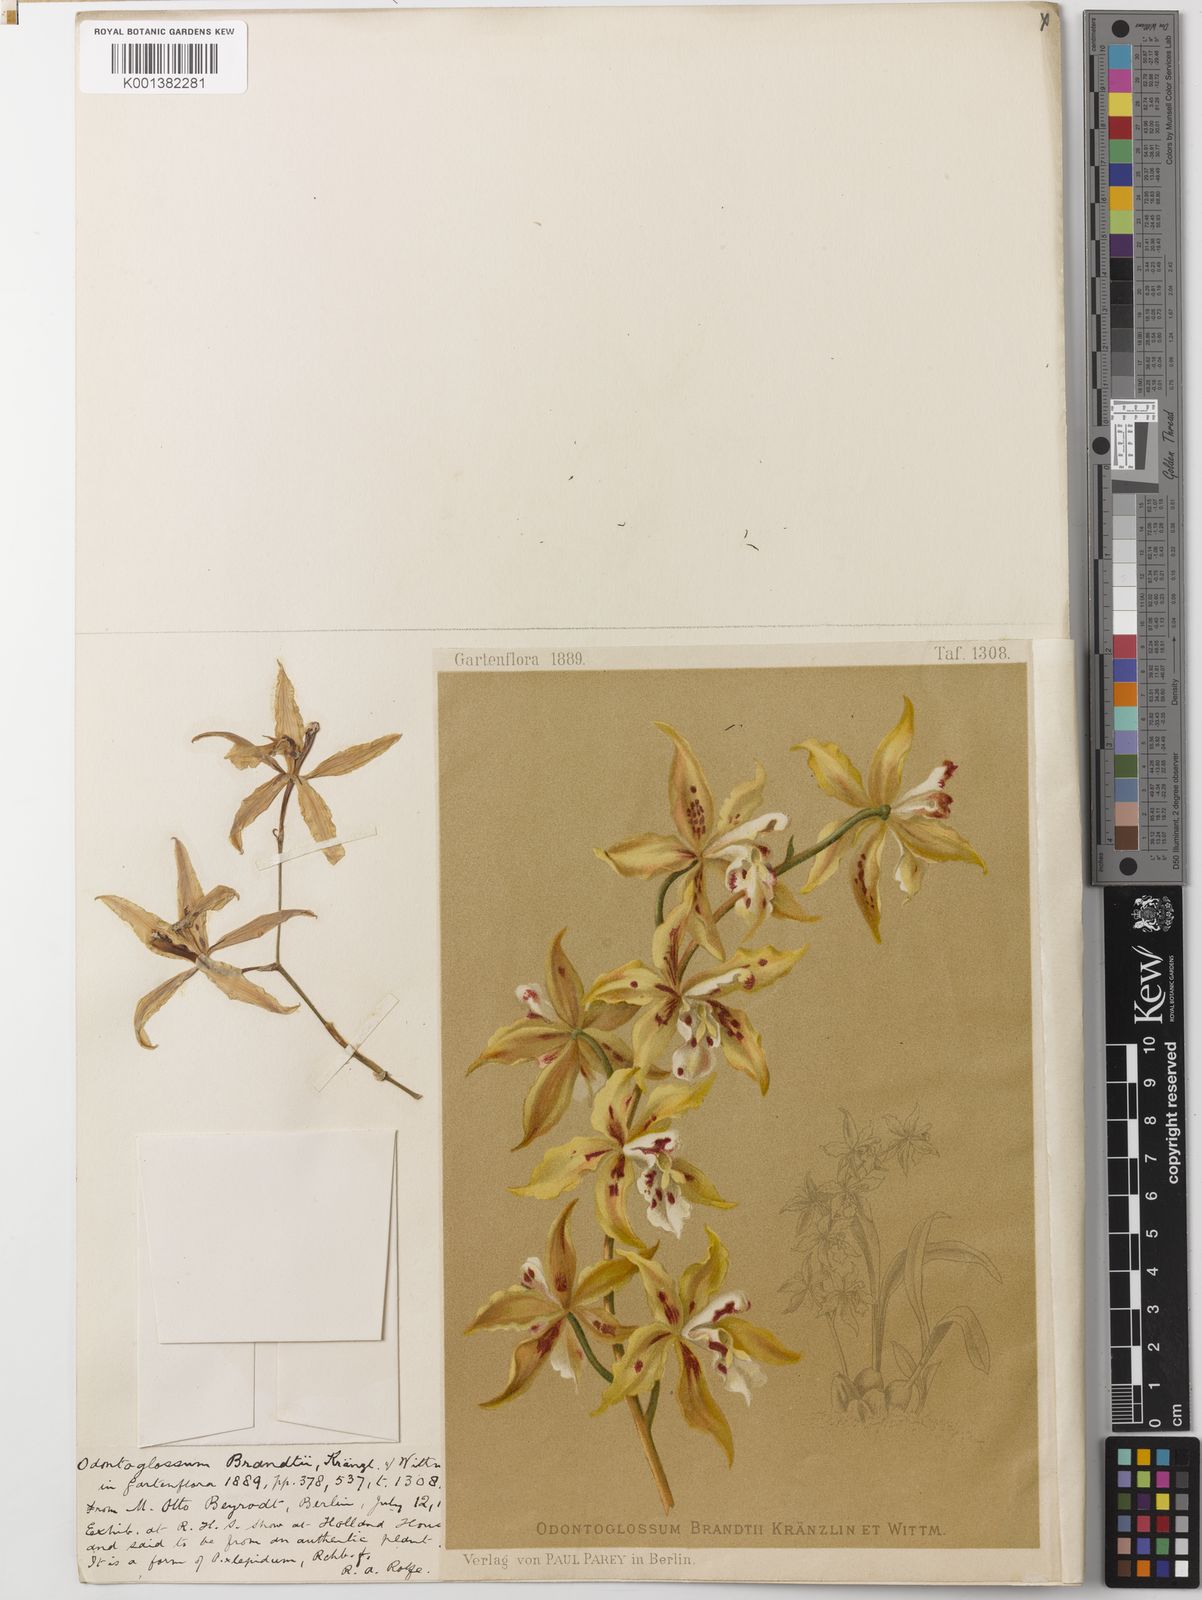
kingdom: Plantae
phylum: Tracheophyta
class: Liliopsida
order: Asparagales
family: Orchidaceae
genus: Oncidium
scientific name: Oncidium brandtii
